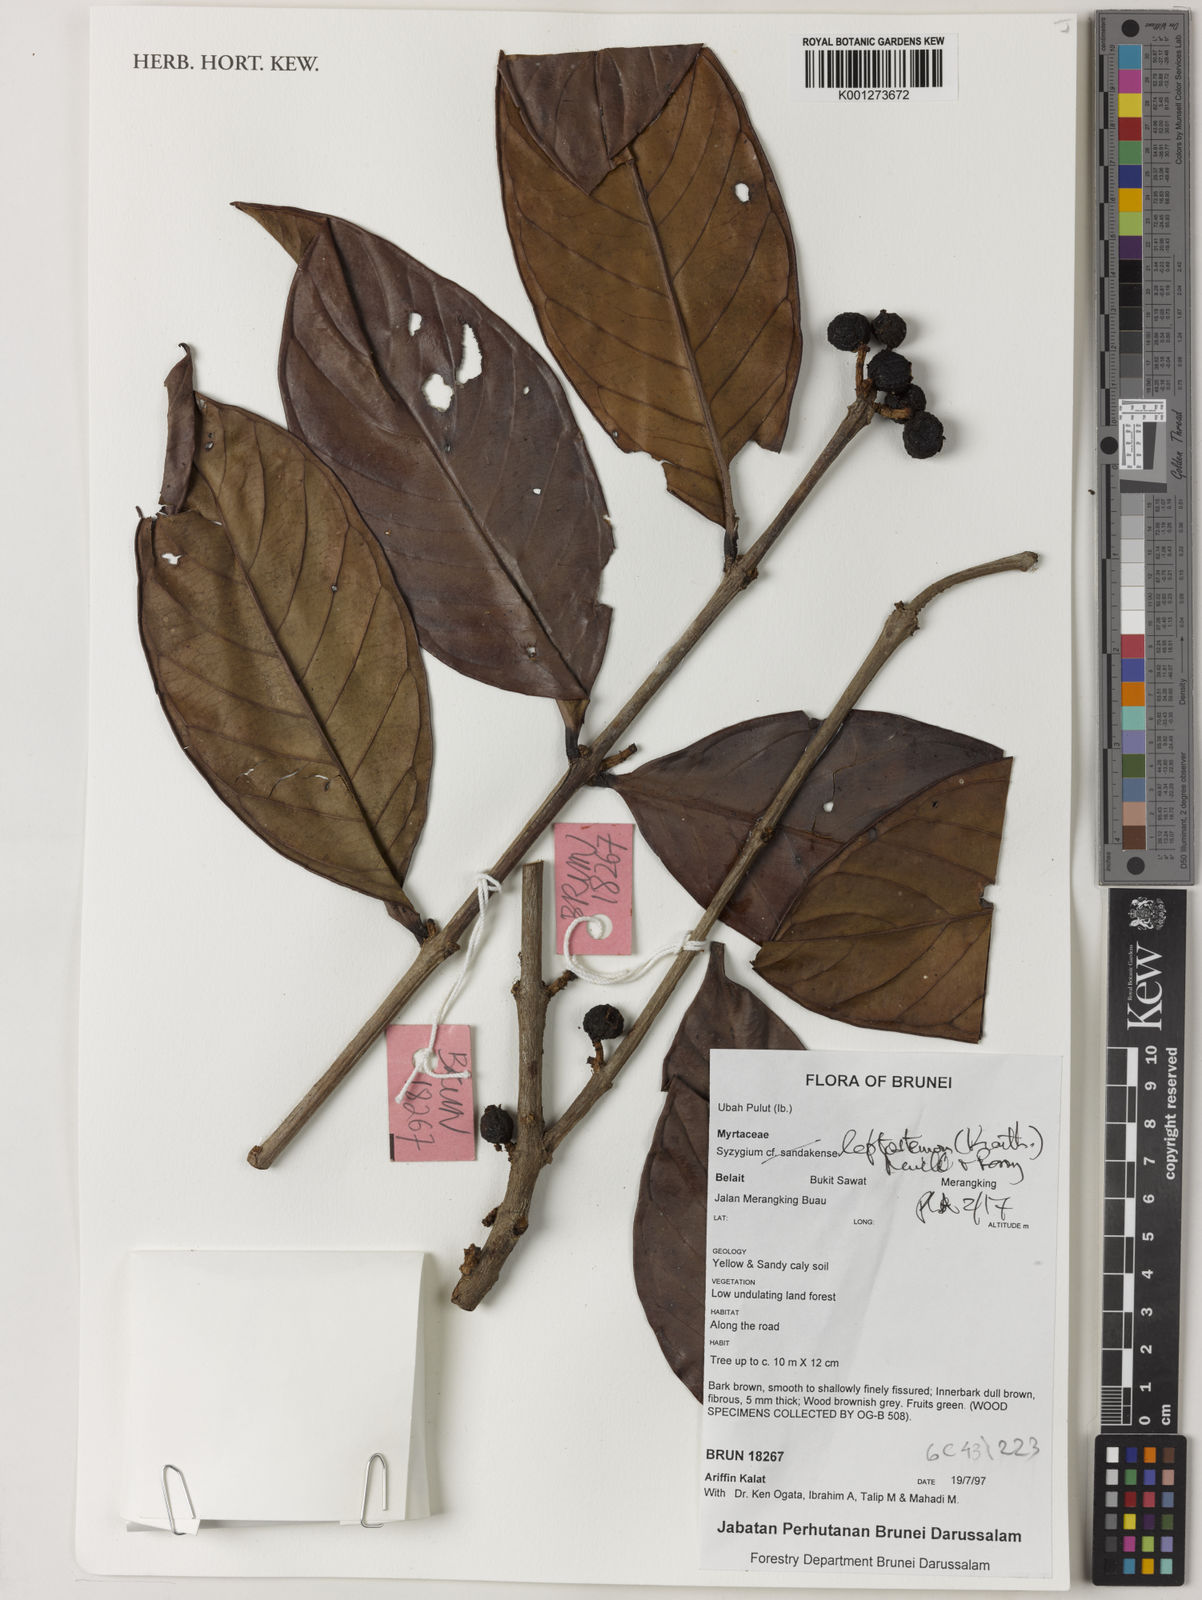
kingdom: Plantae
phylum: Tracheophyta
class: Magnoliopsida
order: Myrtales
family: Myrtaceae
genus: Syzygium
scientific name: Syzygium urceolatum
